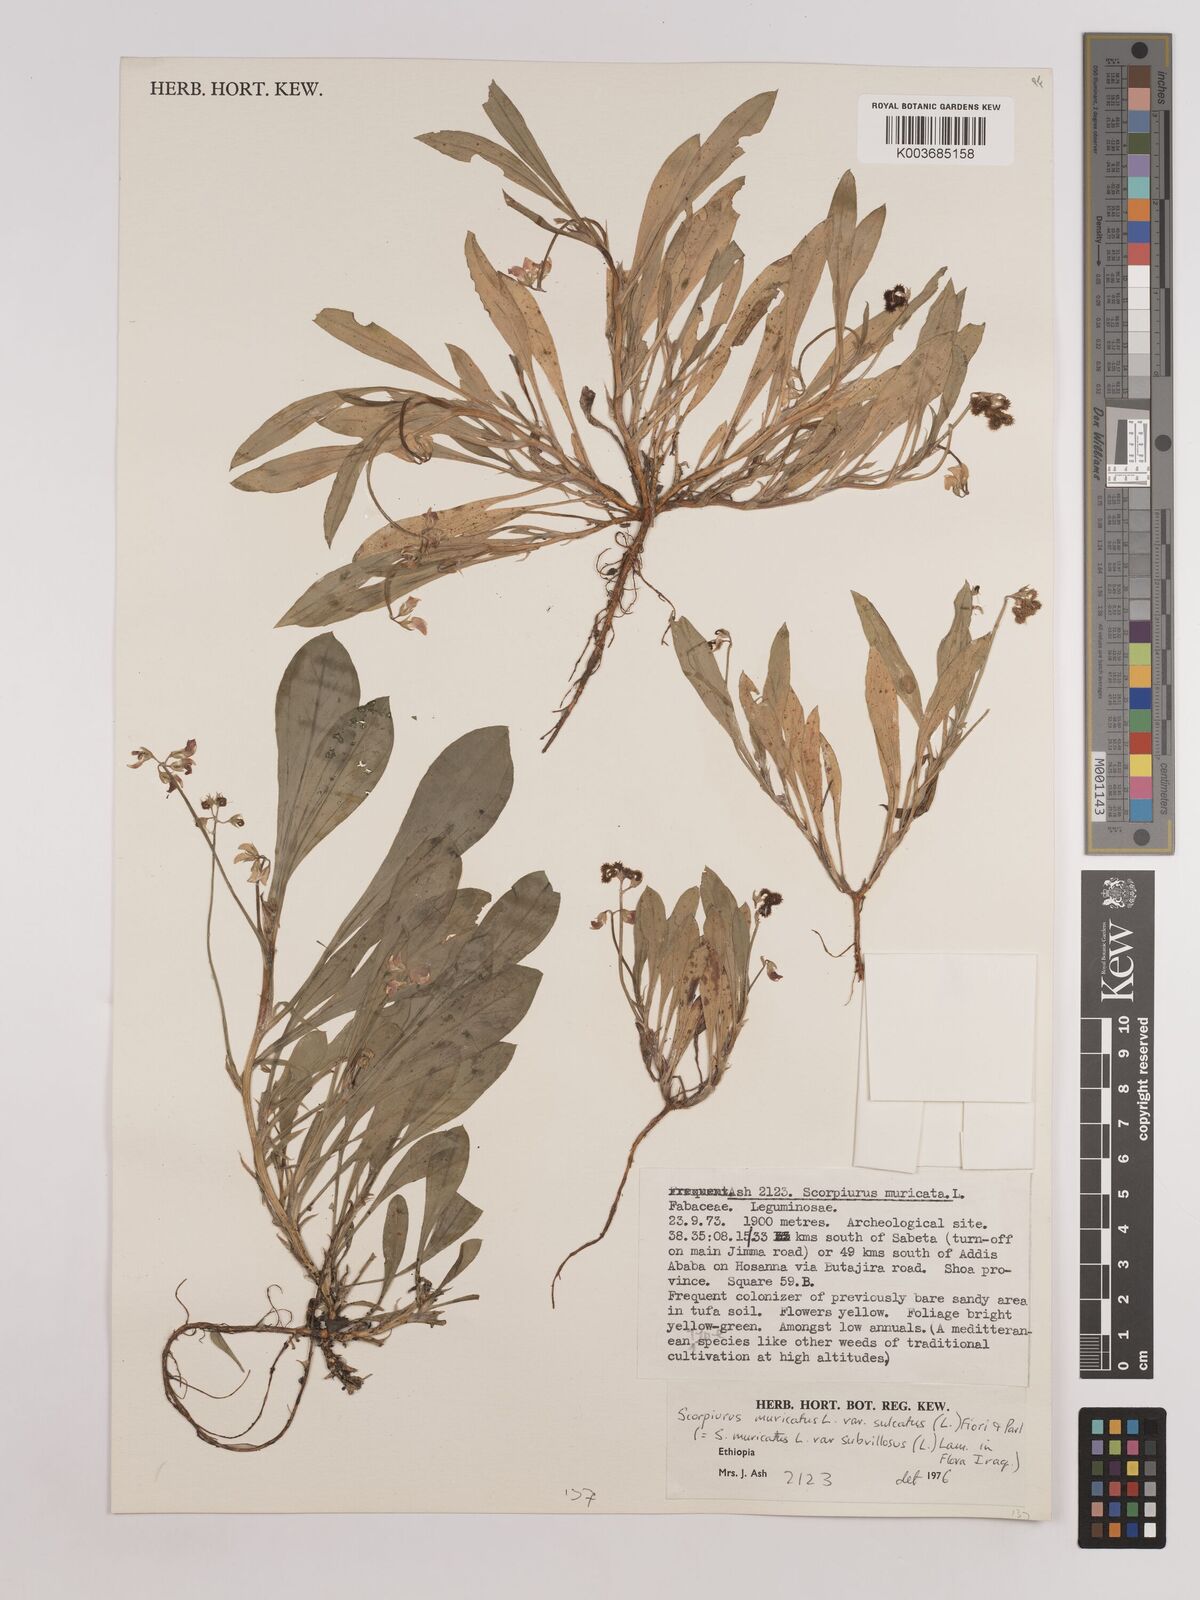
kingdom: Plantae
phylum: Tracheophyta
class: Magnoliopsida
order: Fabales
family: Fabaceae
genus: Scorpiurus
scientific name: Scorpiurus muricatus
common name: Caterpillar-plant
